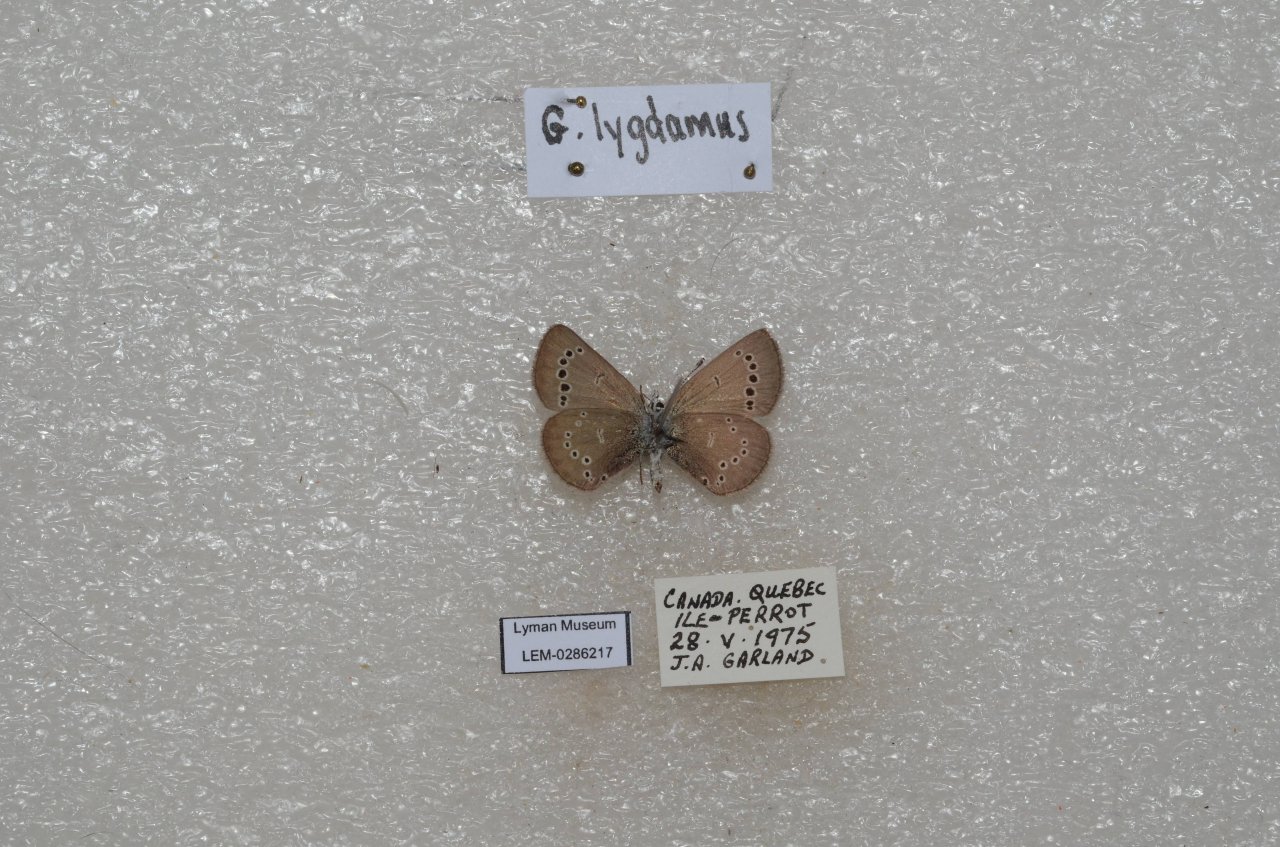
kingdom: Animalia
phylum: Arthropoda
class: Insecta
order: Lepidoptera
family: Lycaenidae
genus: Glaucopsyche
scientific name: Glaucopsyche lygdamus
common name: Silvery Blue
